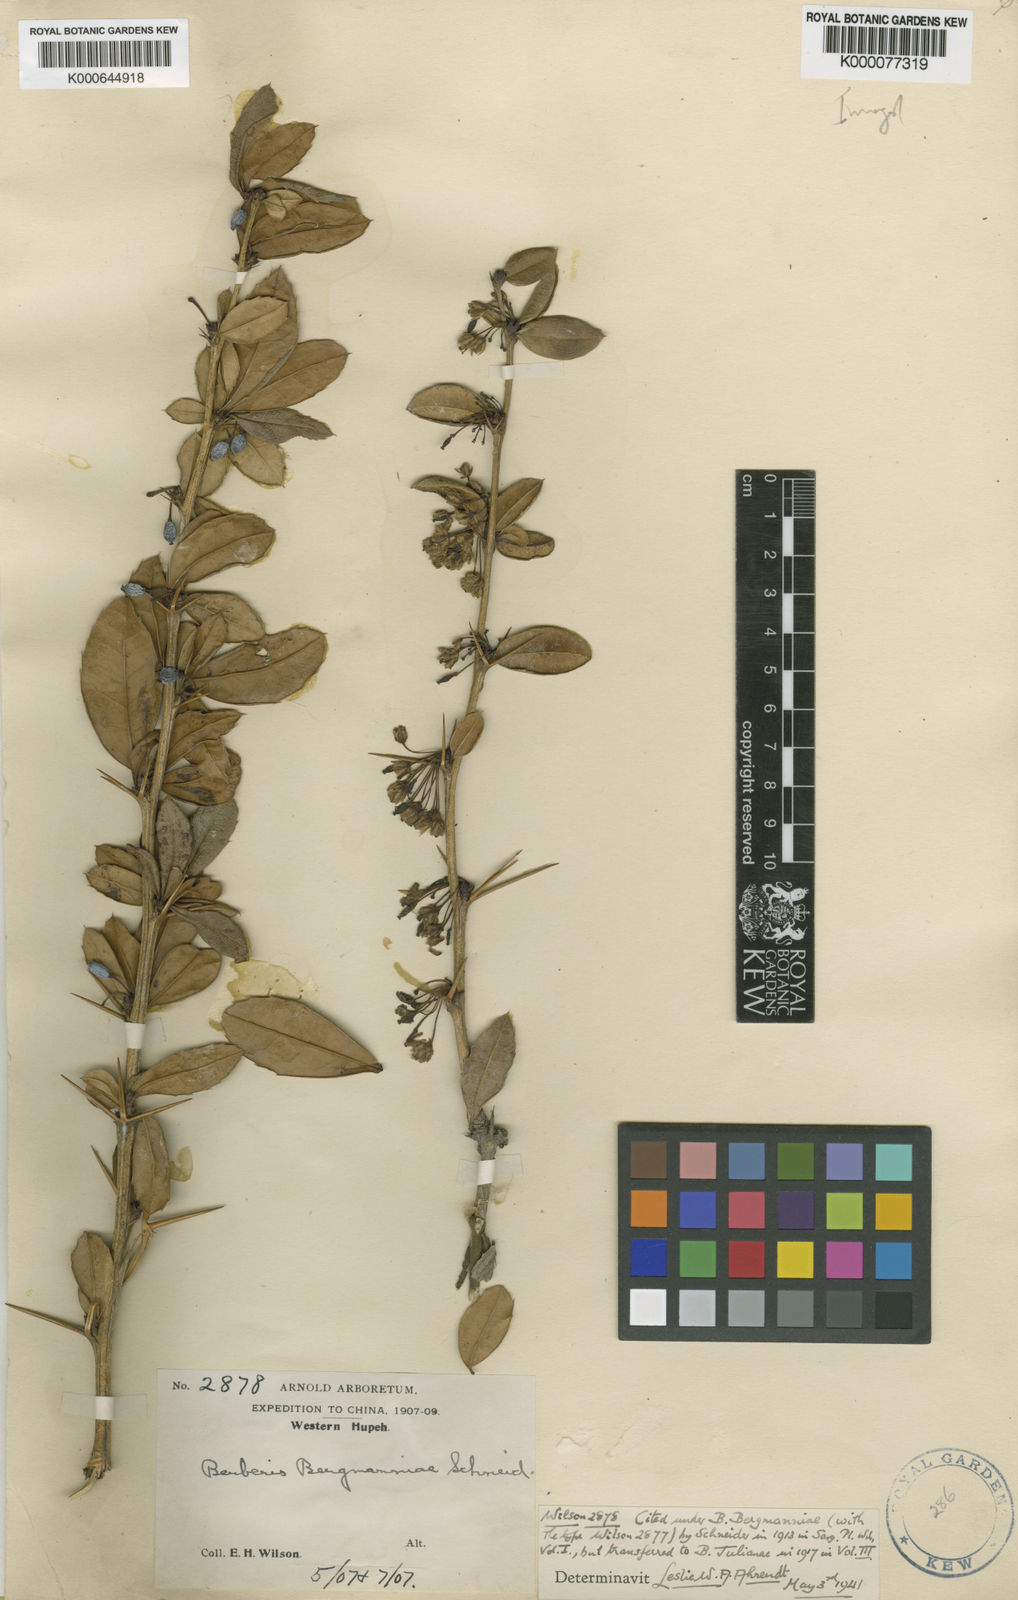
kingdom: Plantae
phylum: Tracheophyta
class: Magnoliopsida
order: Ranunculales
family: Berberidaceae
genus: Berberis
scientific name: Berberis julianae
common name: Wintergreen barberry
